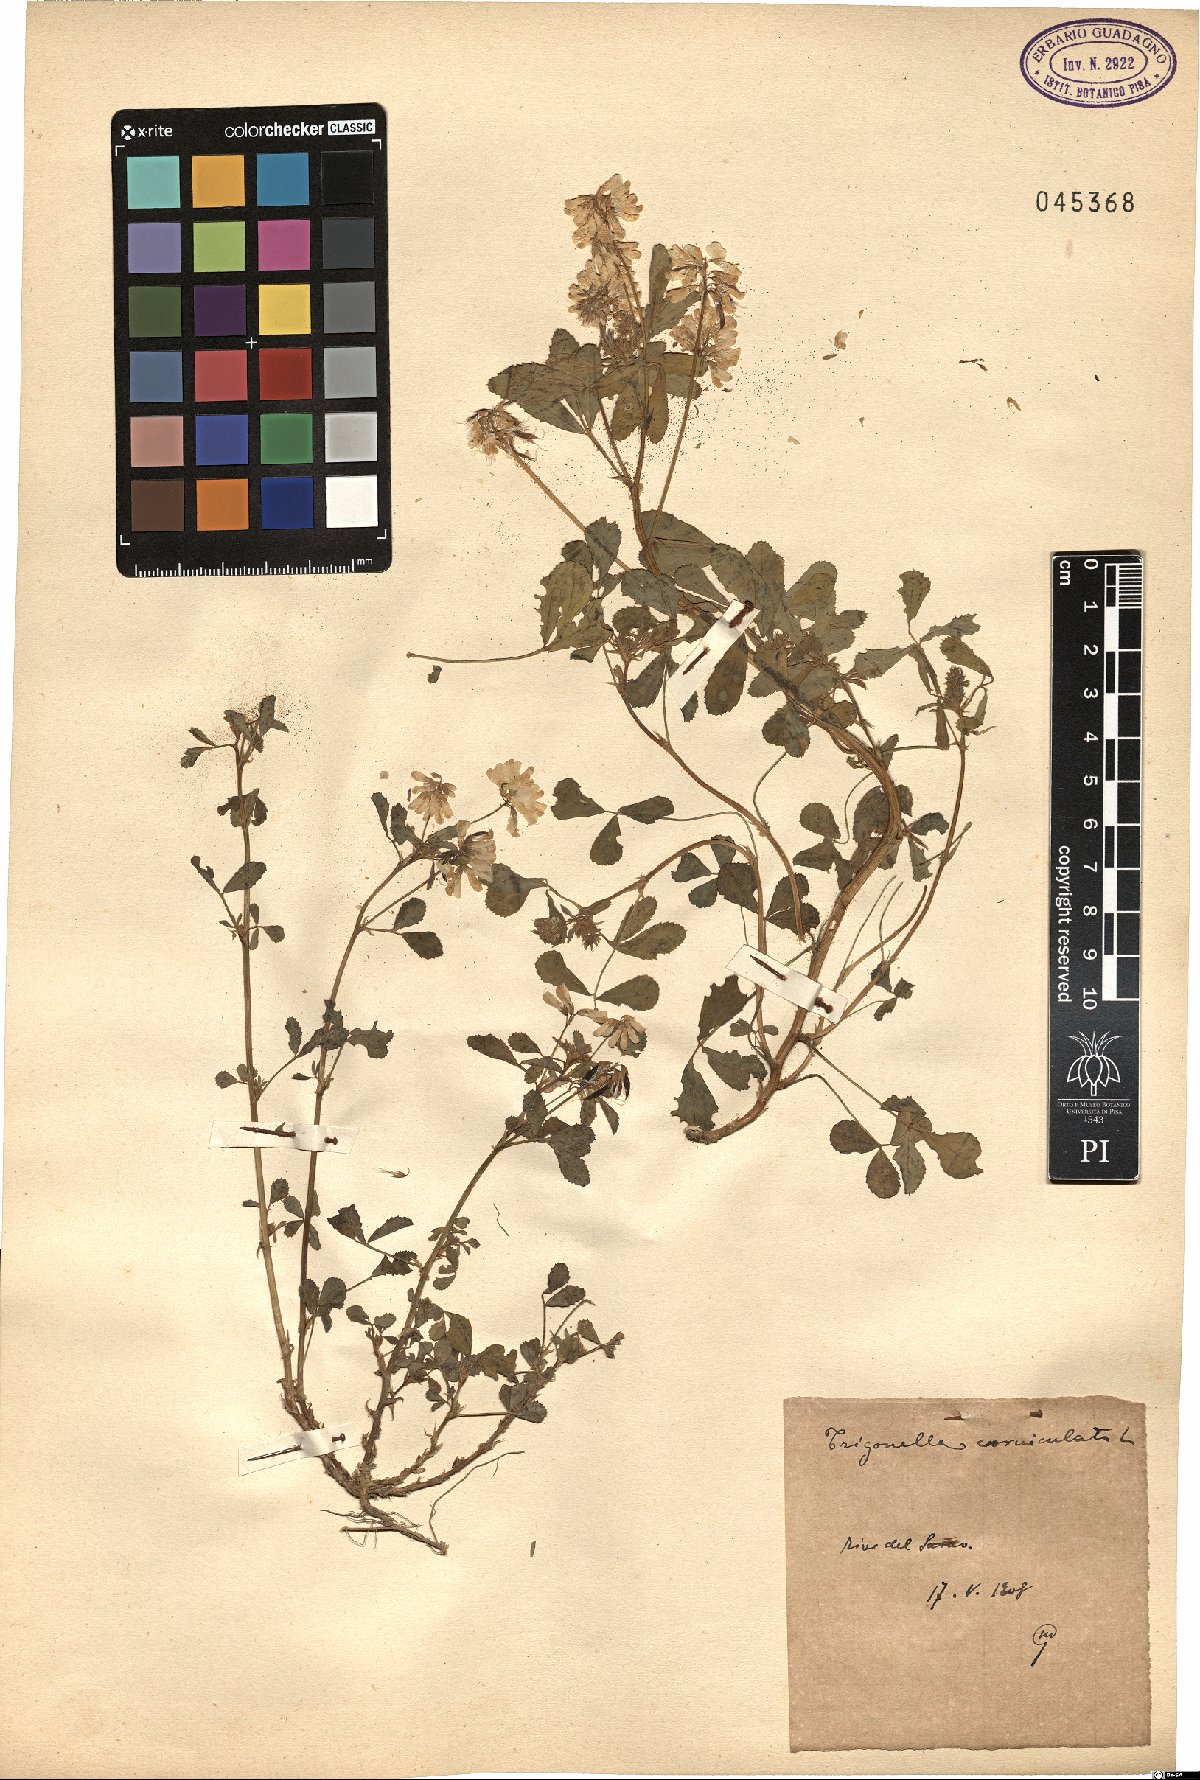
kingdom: Plantae
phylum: Tracheophyta
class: Magnoliopsida
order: Fabales
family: Fabaceae
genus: Trigonella
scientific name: Trigonella balansae
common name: Sickle-fruited fenugreek
